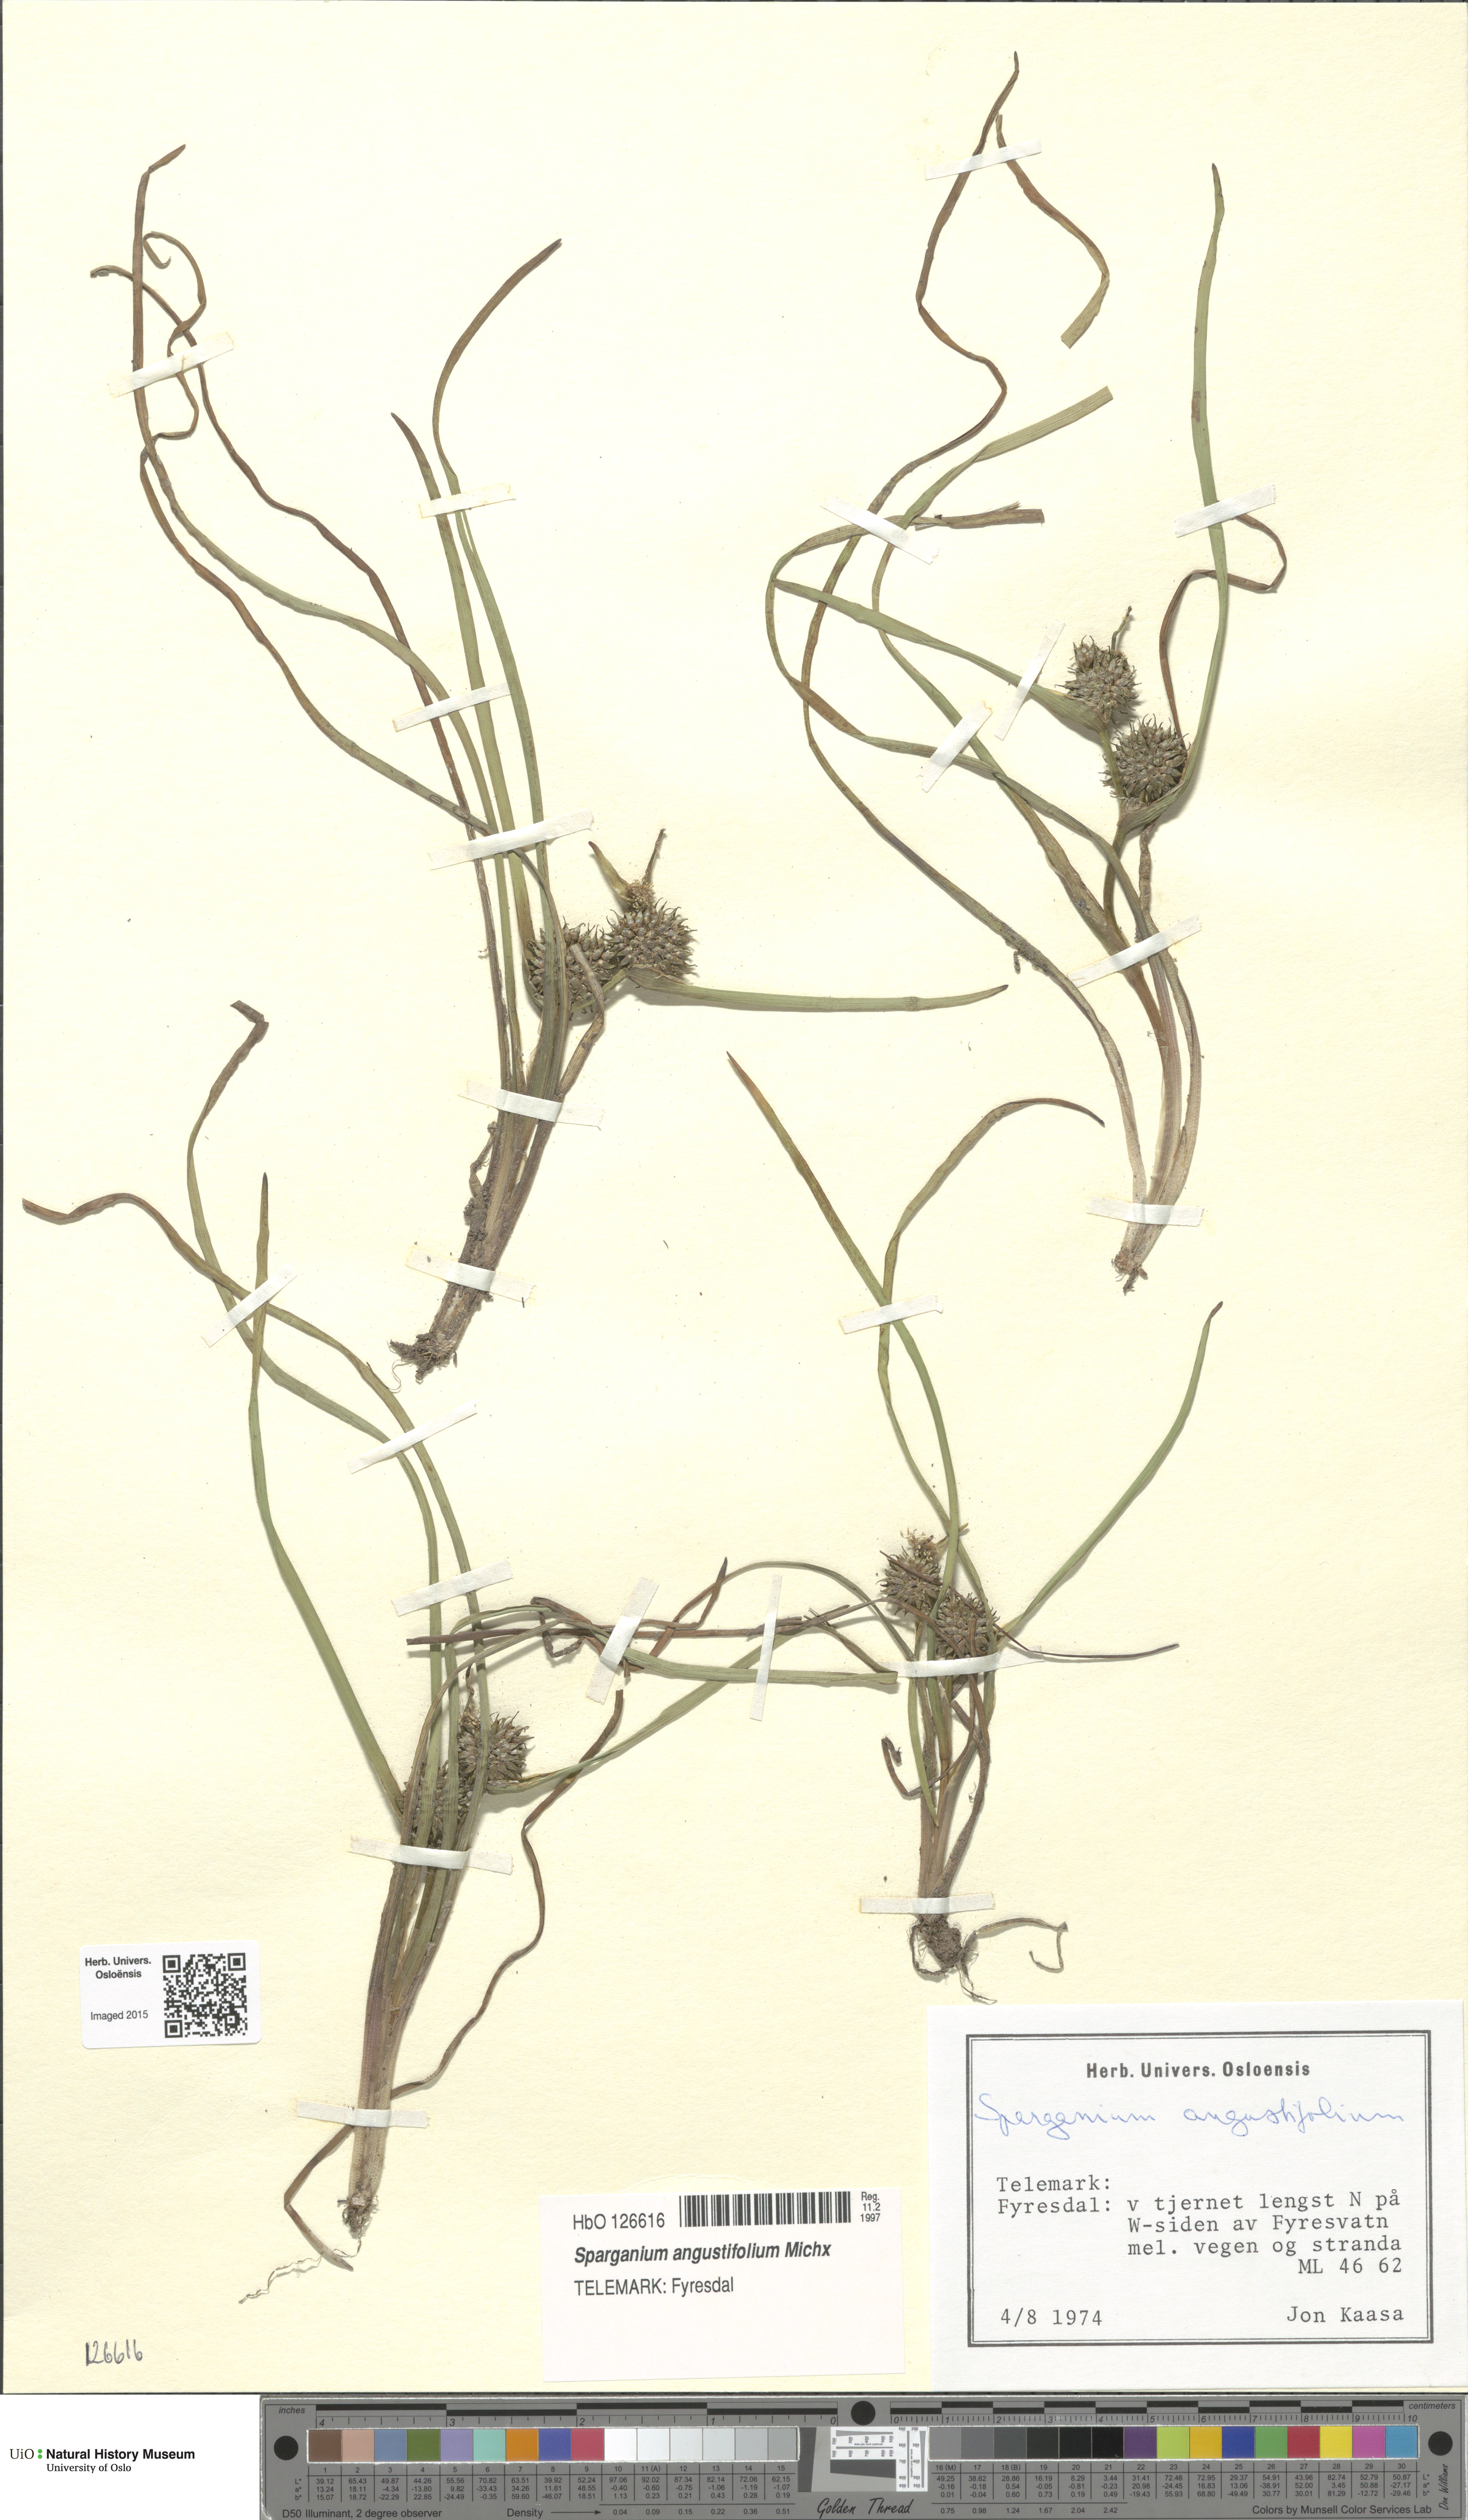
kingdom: Plantae
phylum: Tracheophyta
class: Liliopsida
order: Poales
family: Typhaceae
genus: Sparganium
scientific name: Sparganium angustifolium
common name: Floating bur-reed
